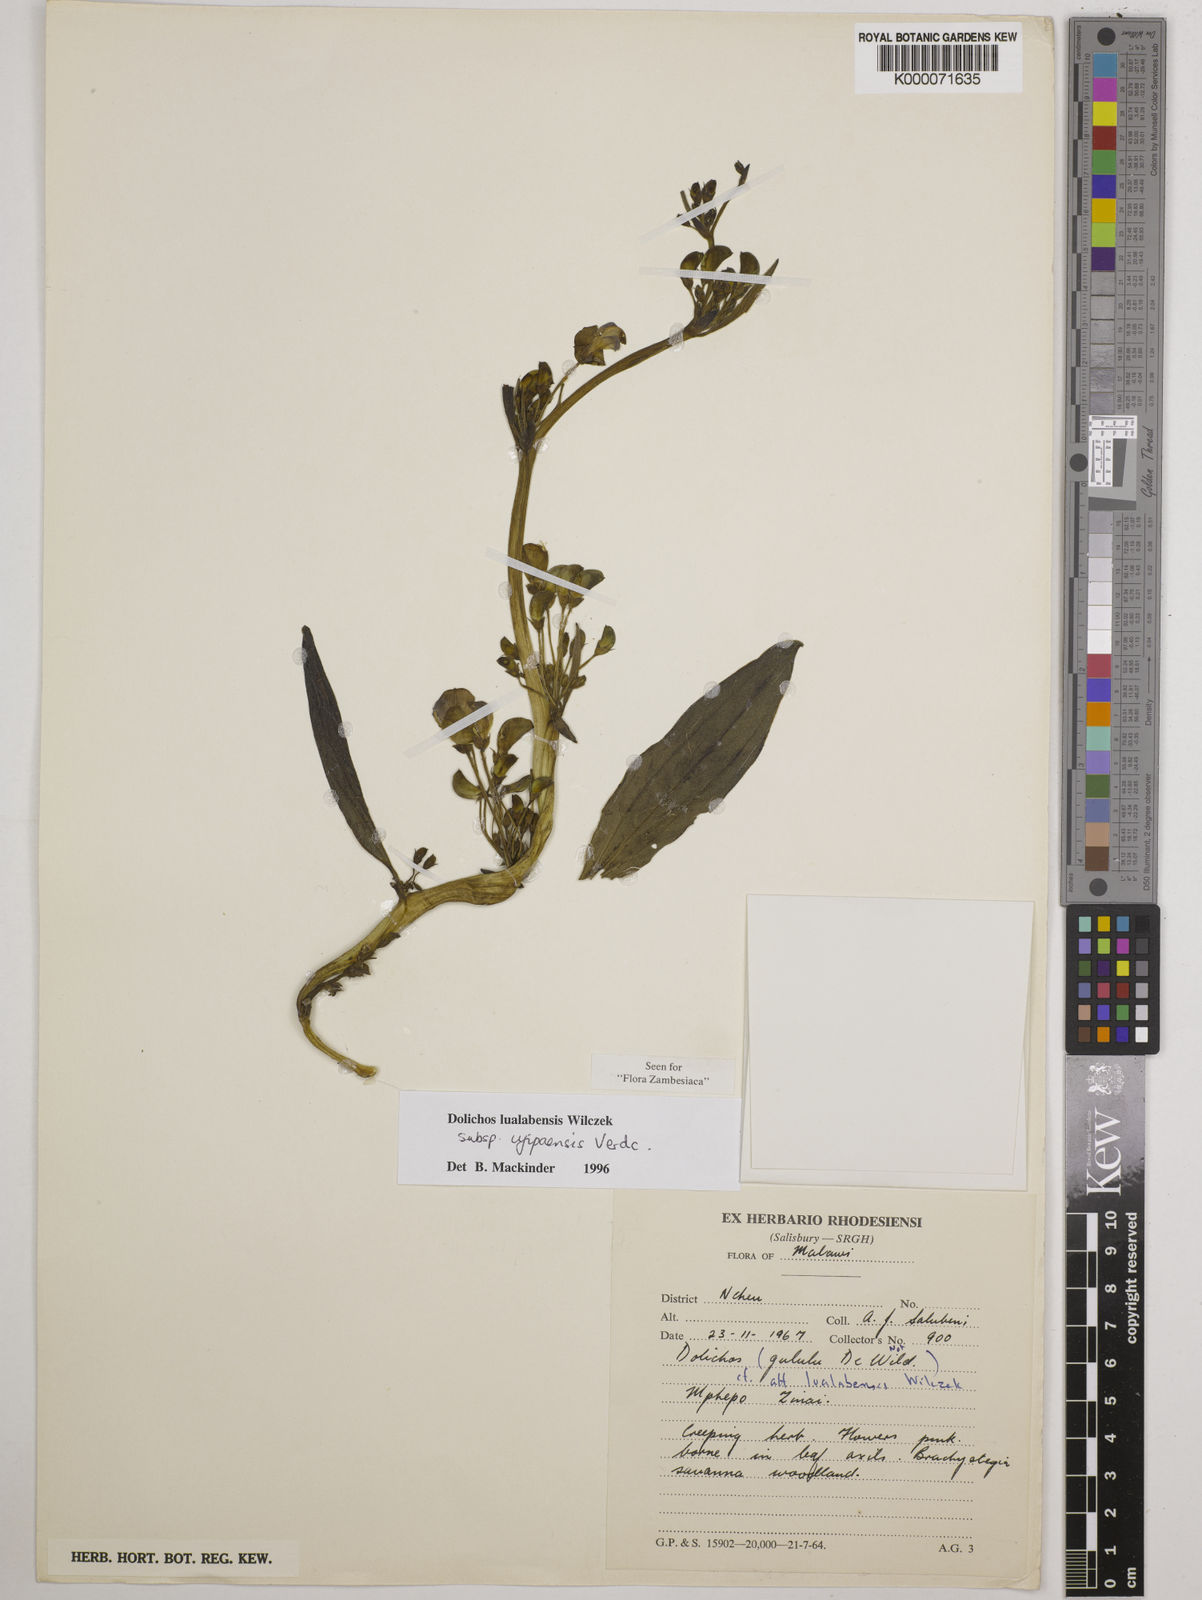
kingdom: Plantae
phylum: Tracheophyta
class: Magnoliopsida
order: Fabales
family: Fabaceae
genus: Dolichos
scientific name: Dolichos lualabensis
